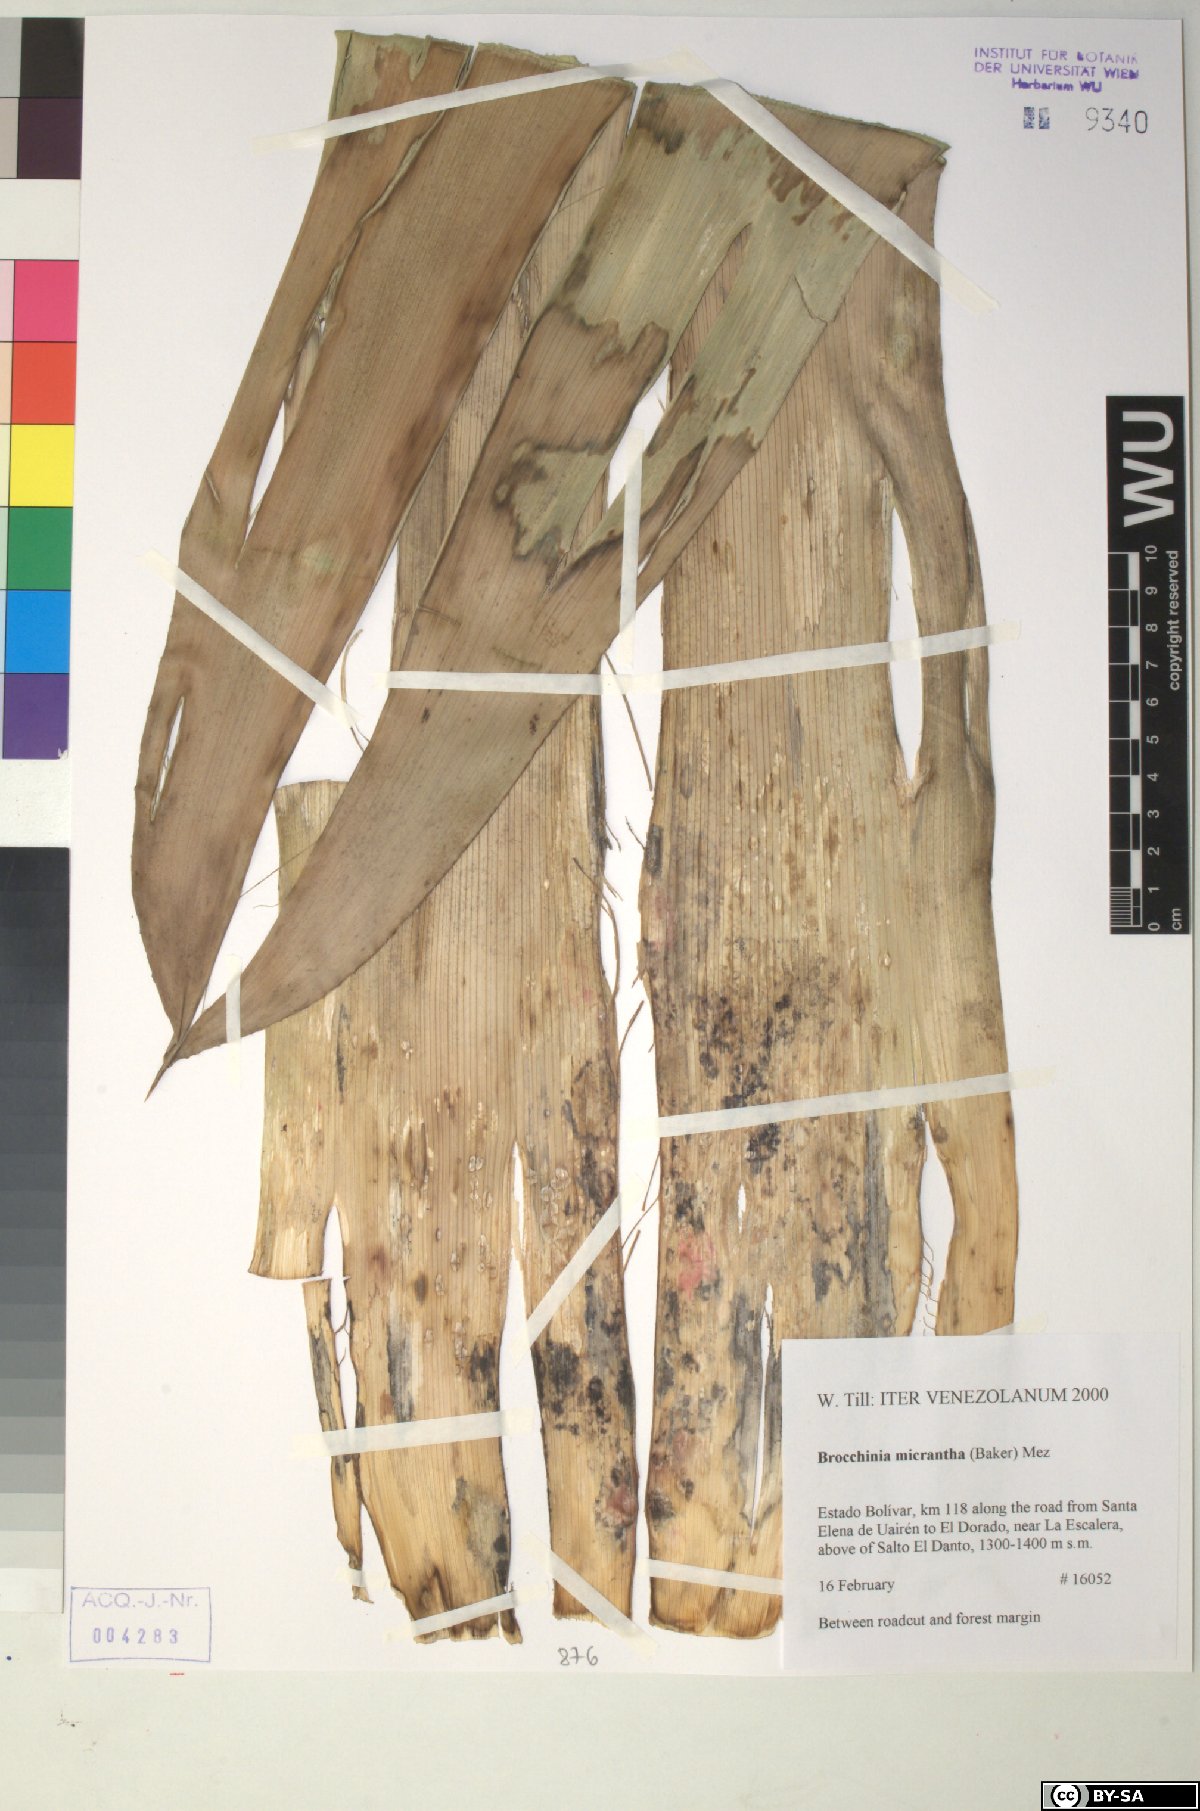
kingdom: Plantae
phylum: Tracheophyta
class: Liliopsida
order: Poales
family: Bromeliaceae
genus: Brocchinia
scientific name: Brocchinia micrantha
